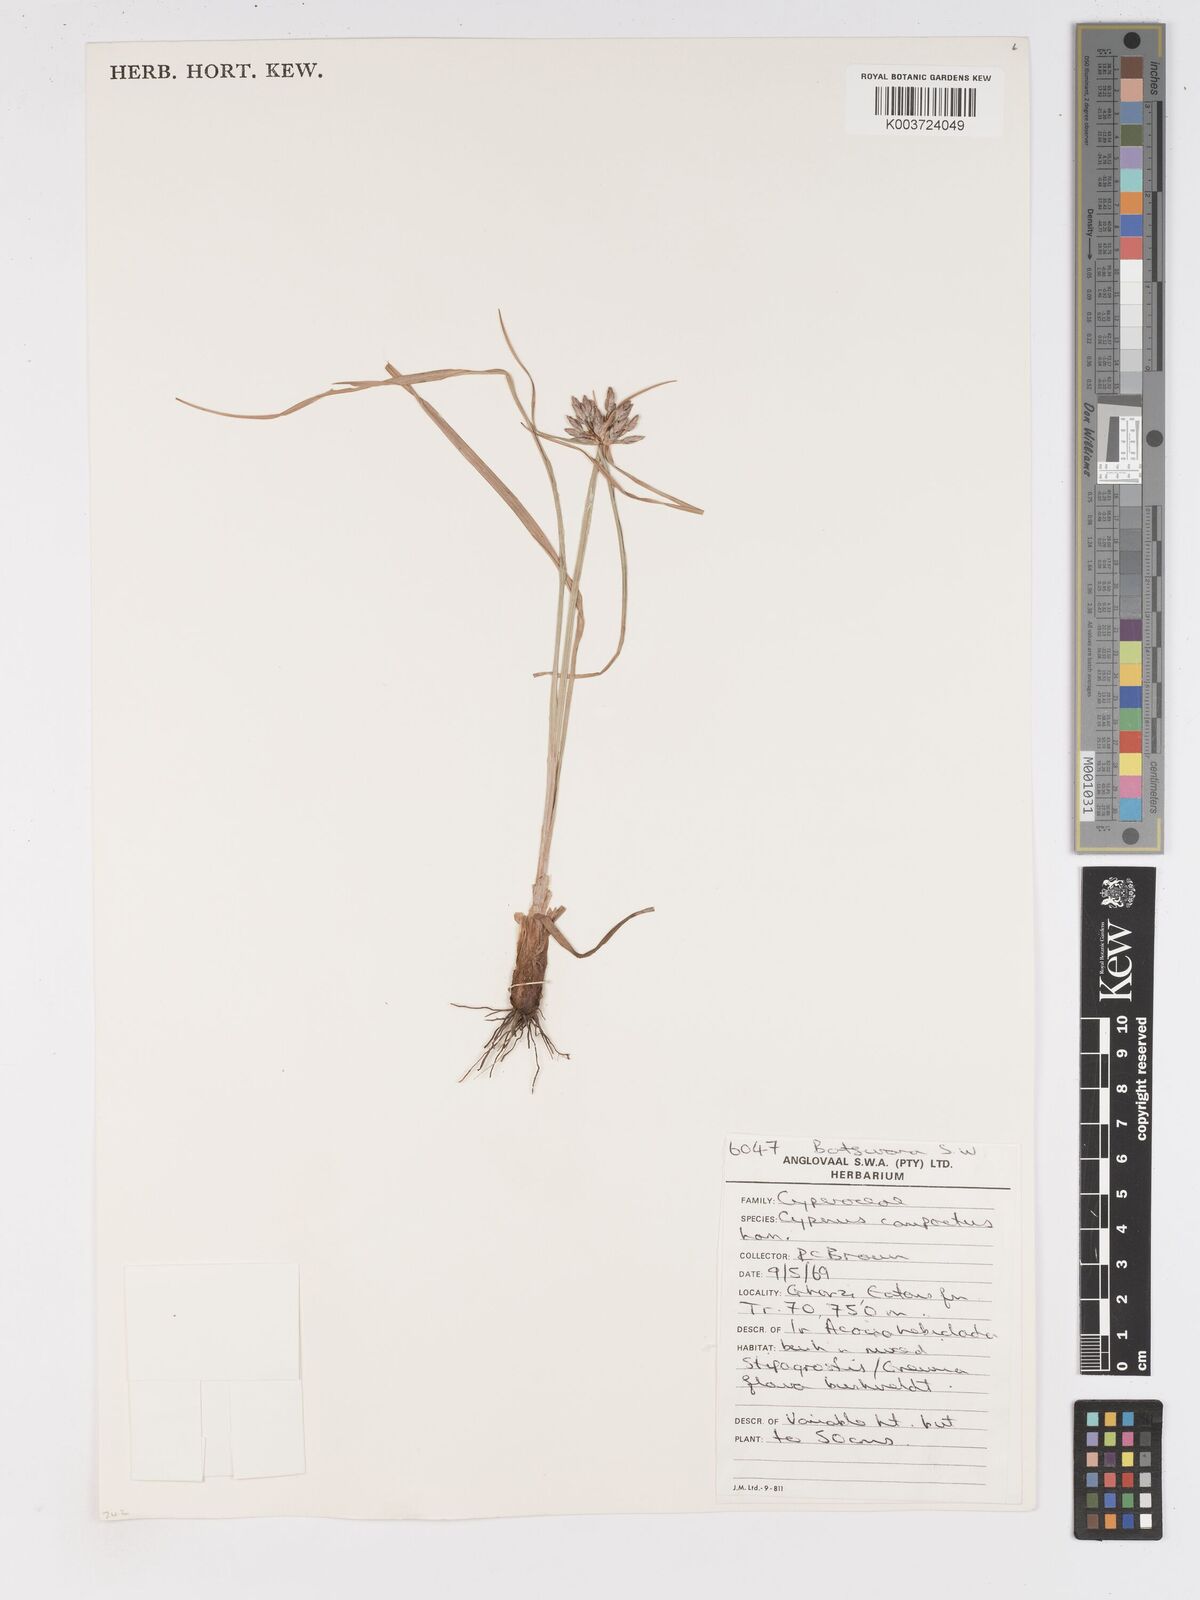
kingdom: Plantae
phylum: Tracheophyta
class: Liliopsida
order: Poales
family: Cyperaceae
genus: Cyperus
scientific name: Cyperus niveus
